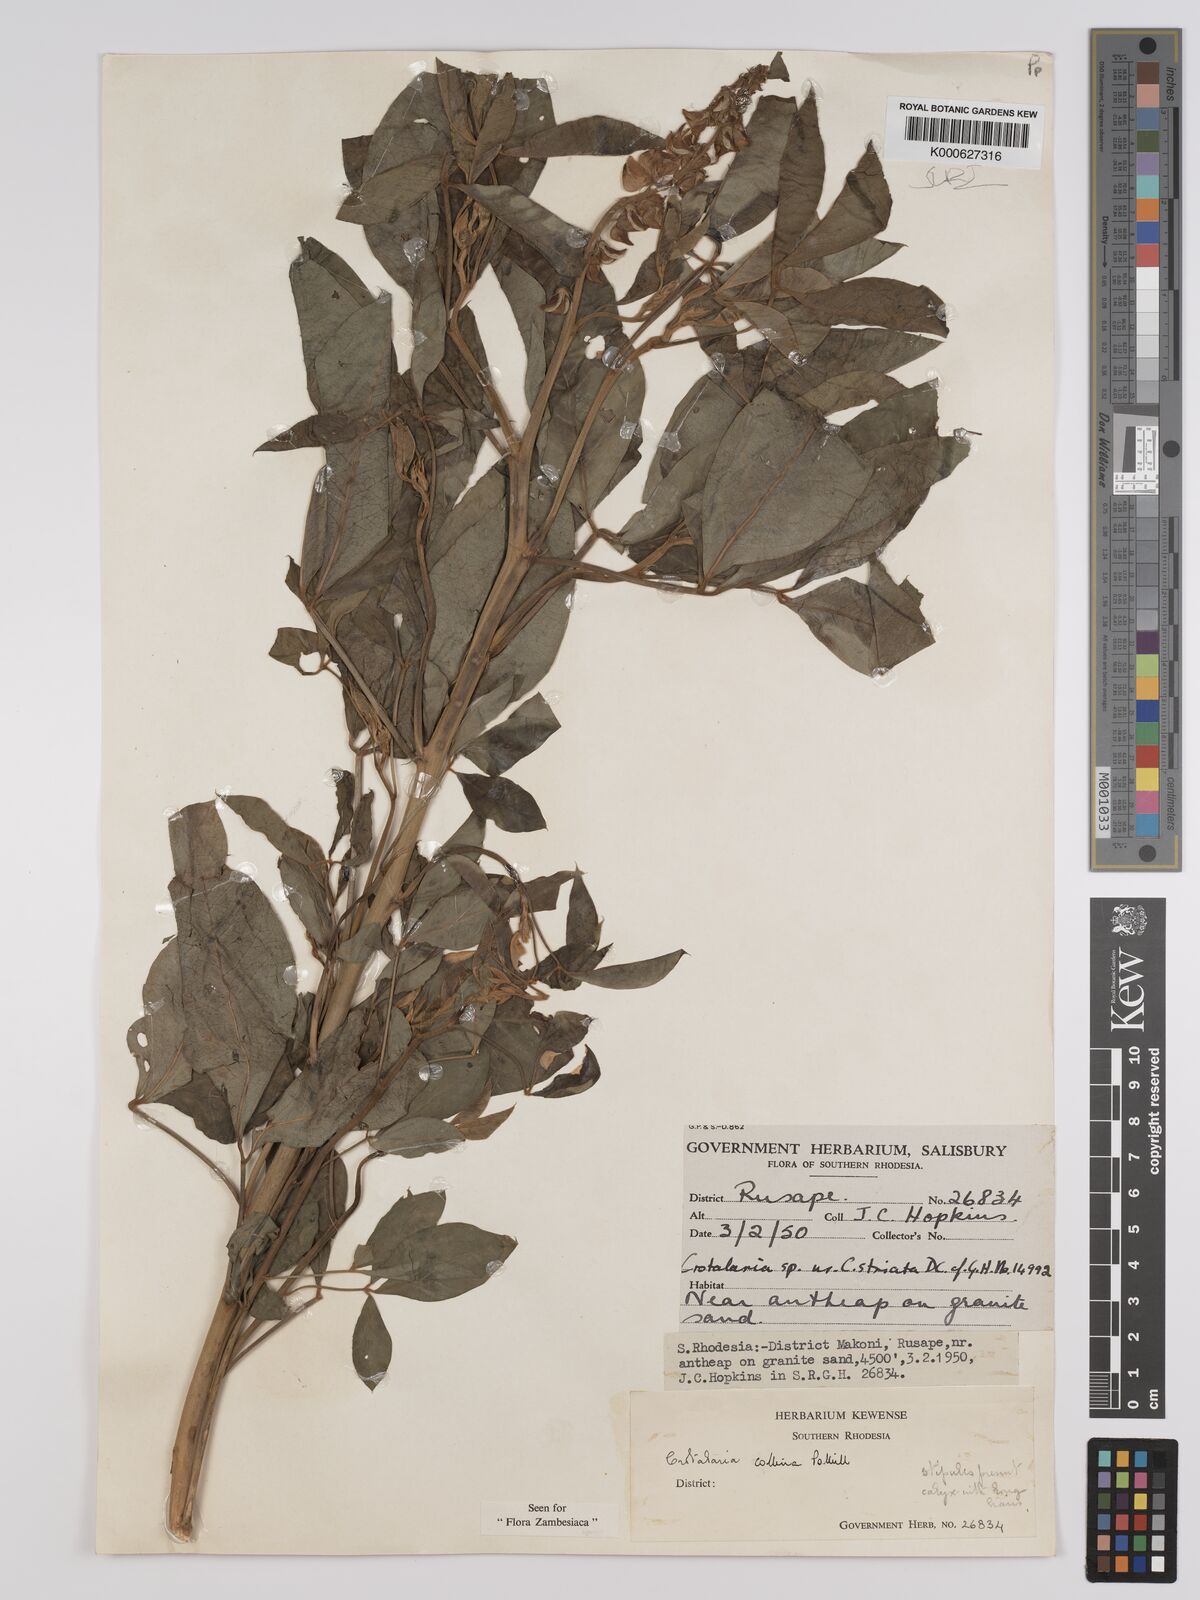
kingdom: Plantae
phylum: Tracheophyta
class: Magnoliopsida
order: Fabales
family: Fabaceae
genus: Crotalaria
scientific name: Crotalaria collina
